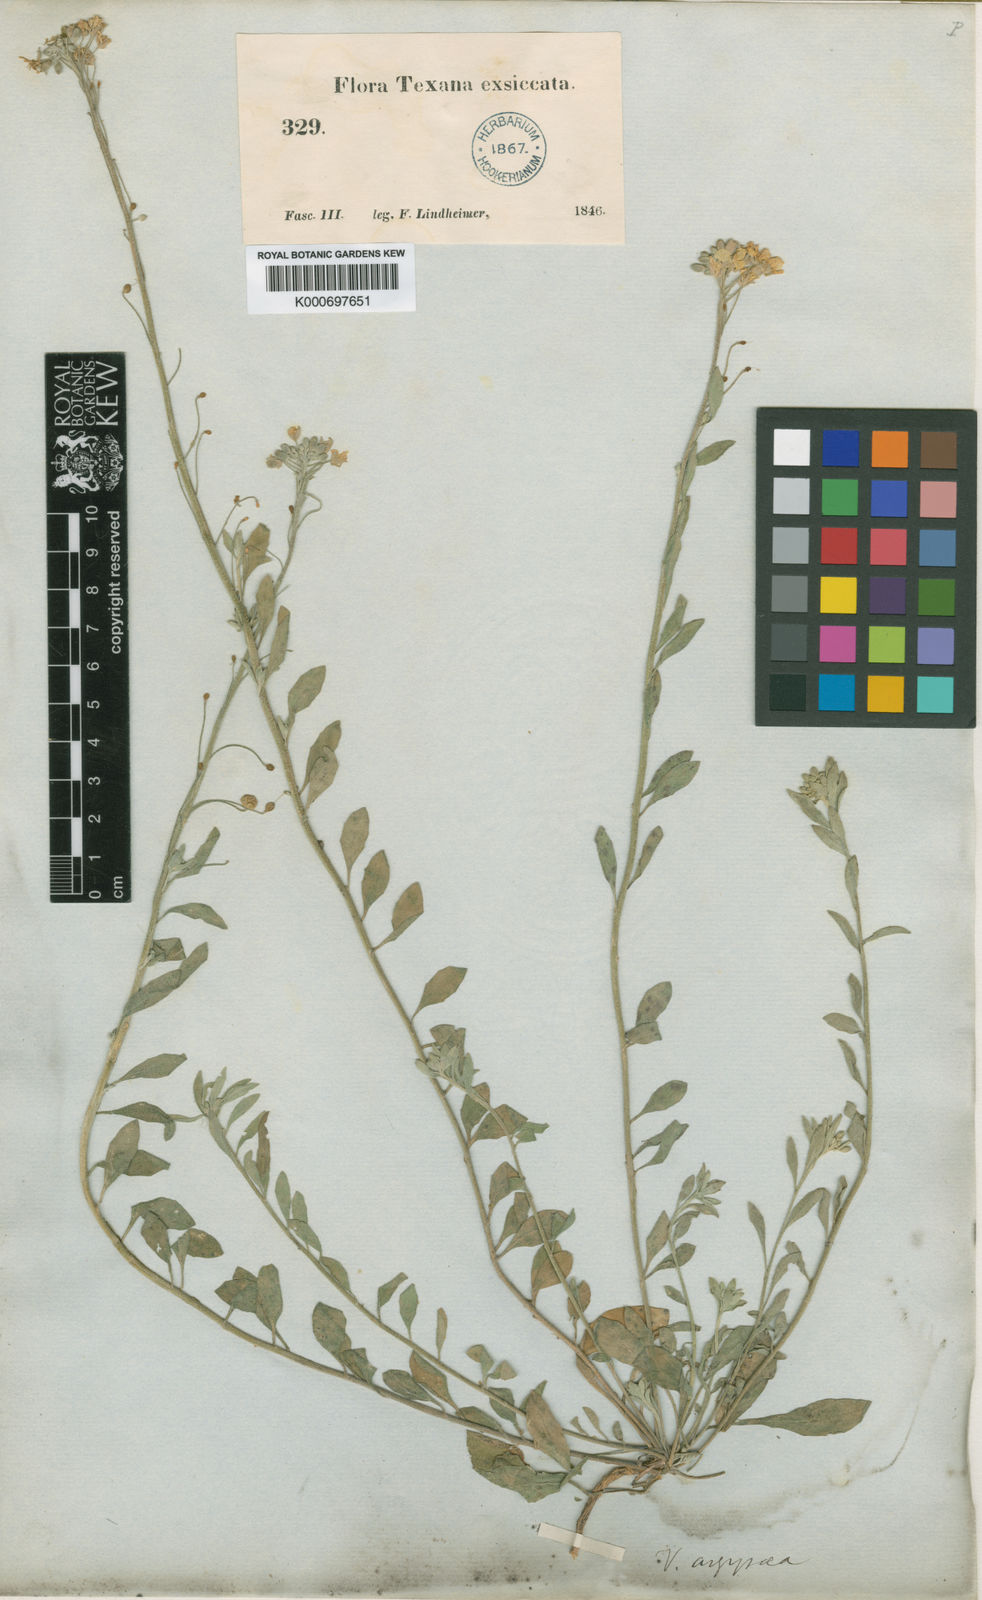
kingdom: Plantae
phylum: Tracheophyta
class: Magnoliopsida
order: Brassicales
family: Brassicaceae
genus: Physaria
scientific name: Physaria argyraea
